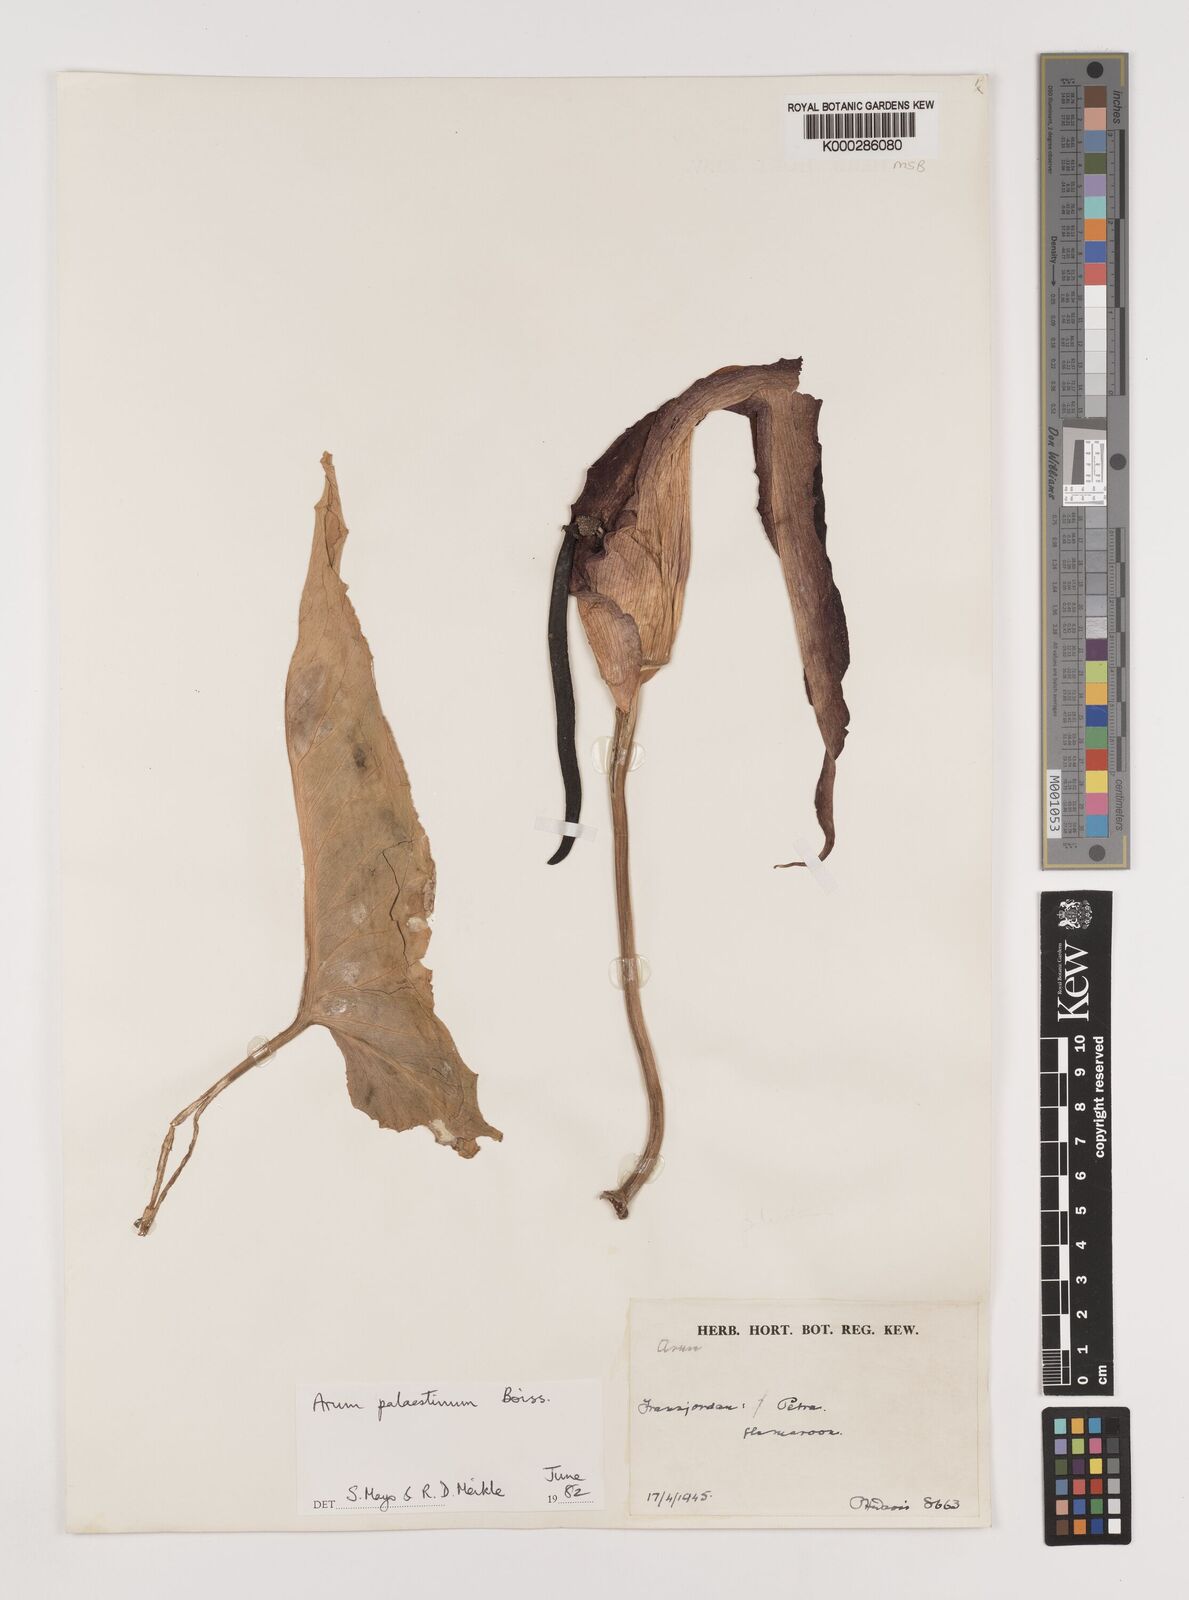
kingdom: Plantae
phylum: Tracheophyta
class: Liliopsida
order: Alismatales
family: Araceae
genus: Arum
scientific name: Arum palaestinum
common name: Solomon's lily
